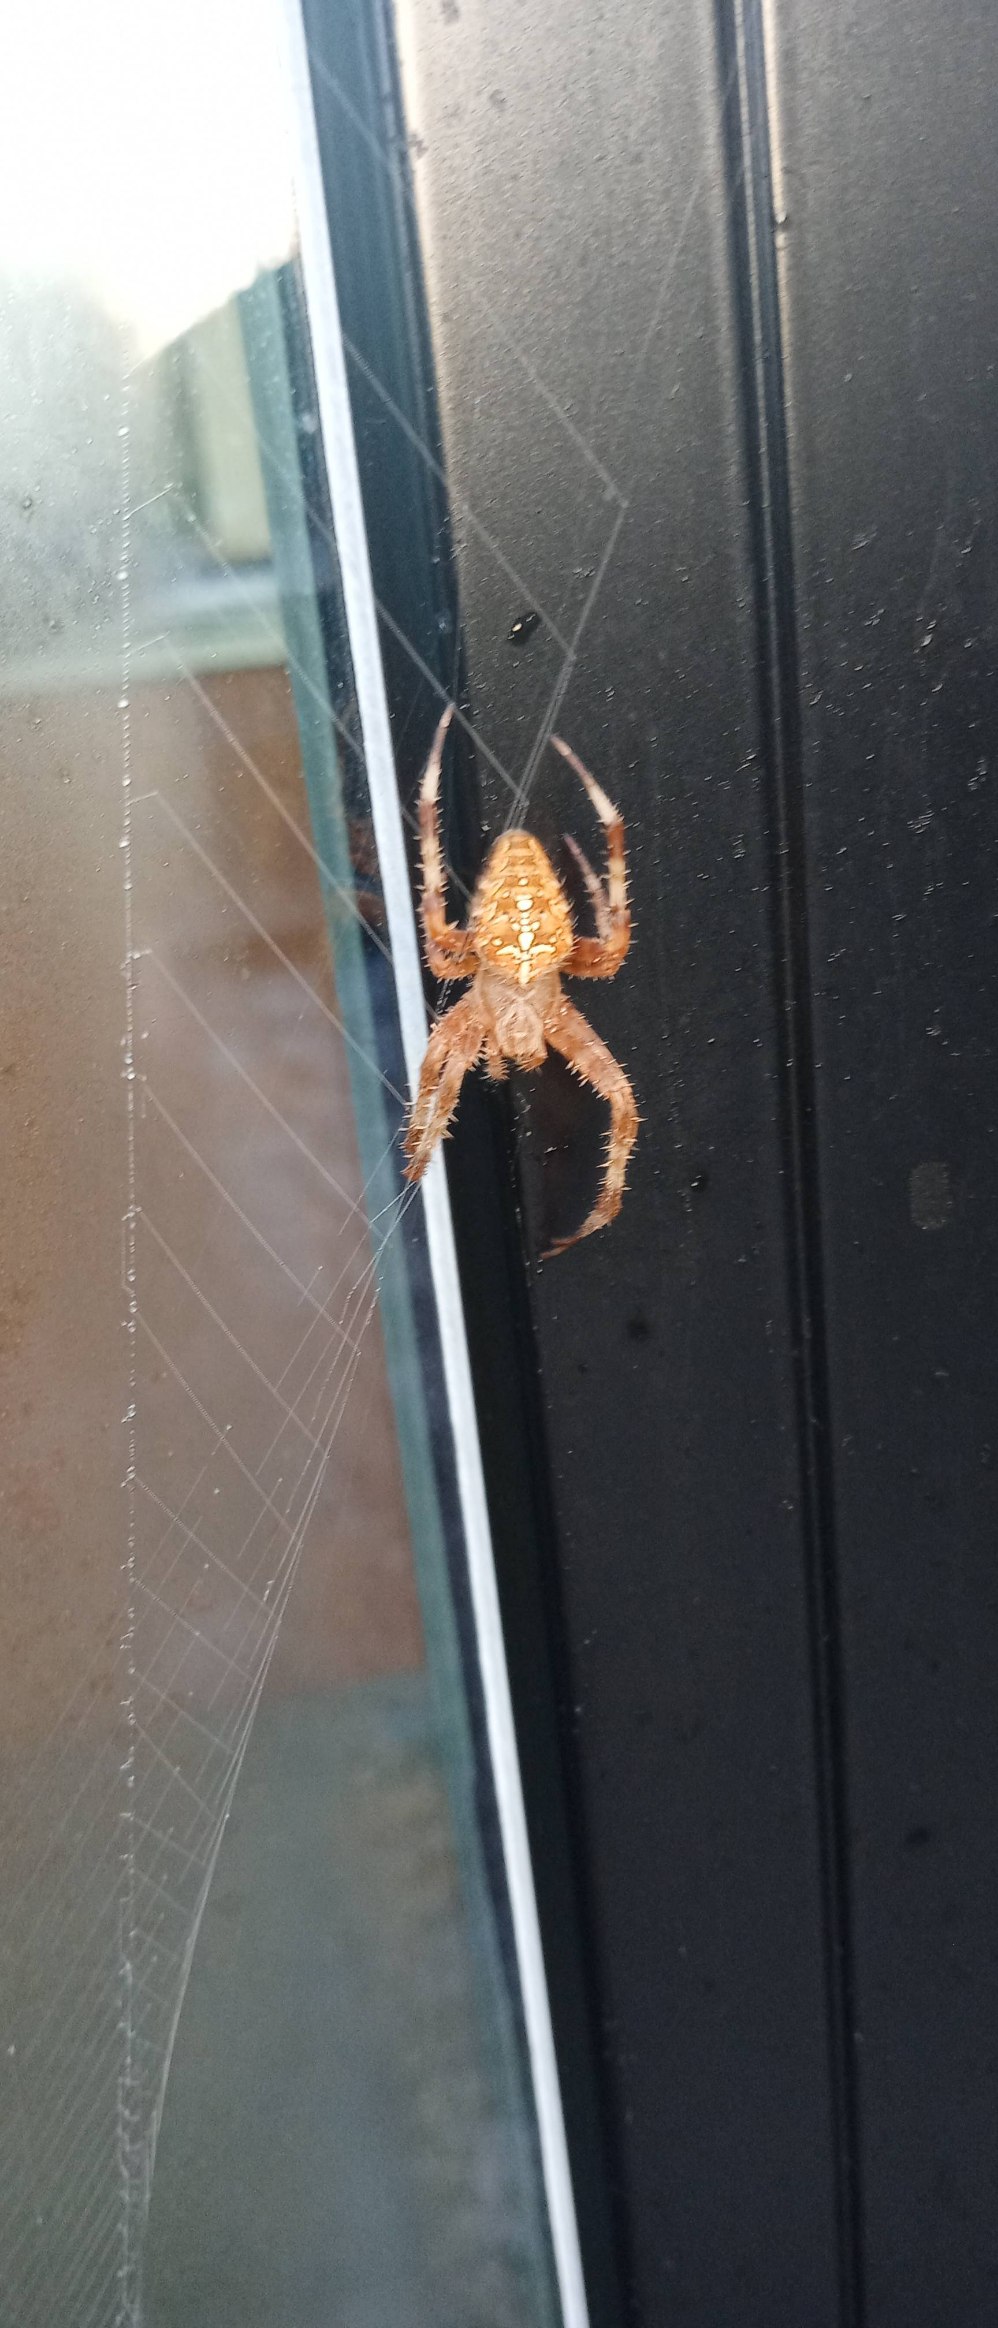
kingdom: Animalia
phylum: Arthropoda
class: Arachnida
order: Araneae
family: Araneidae
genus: Araneus
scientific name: Araneus diadematus
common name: Korsedderkop
